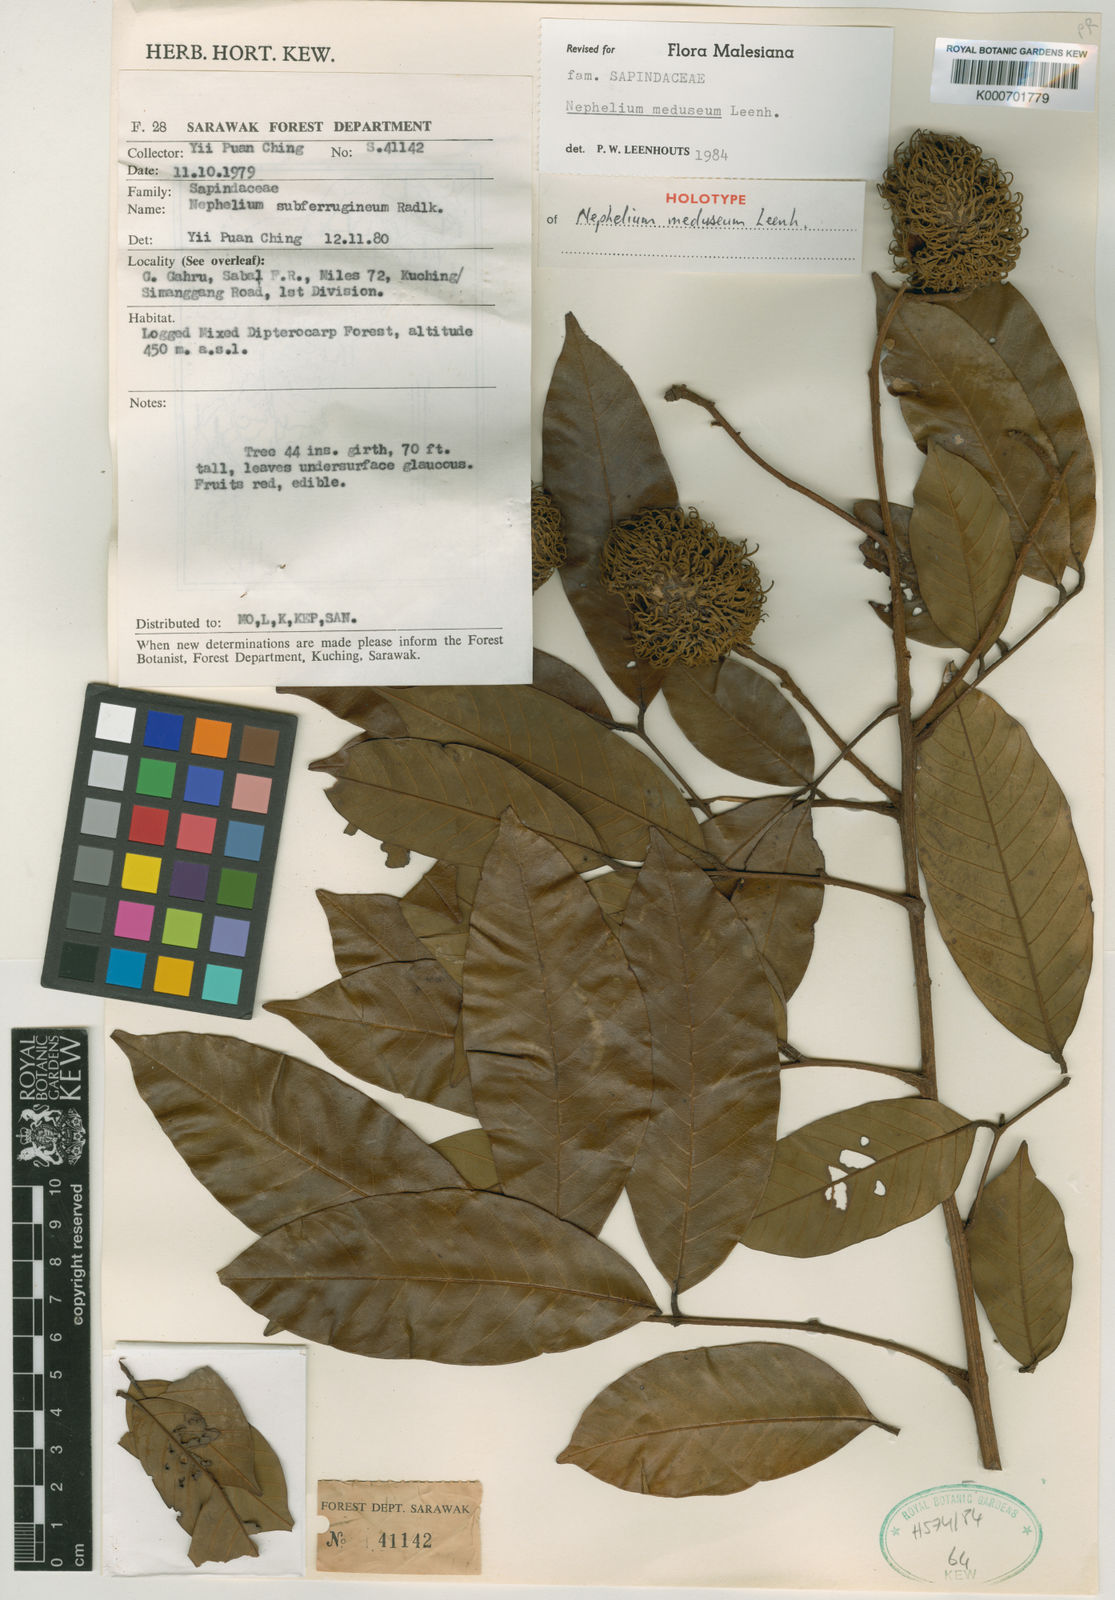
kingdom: Plantae
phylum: Tracheophyta
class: Magnoliopsida
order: Sapindales
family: Sapindaceae
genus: Nephelium
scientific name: Nephelium meduseum
